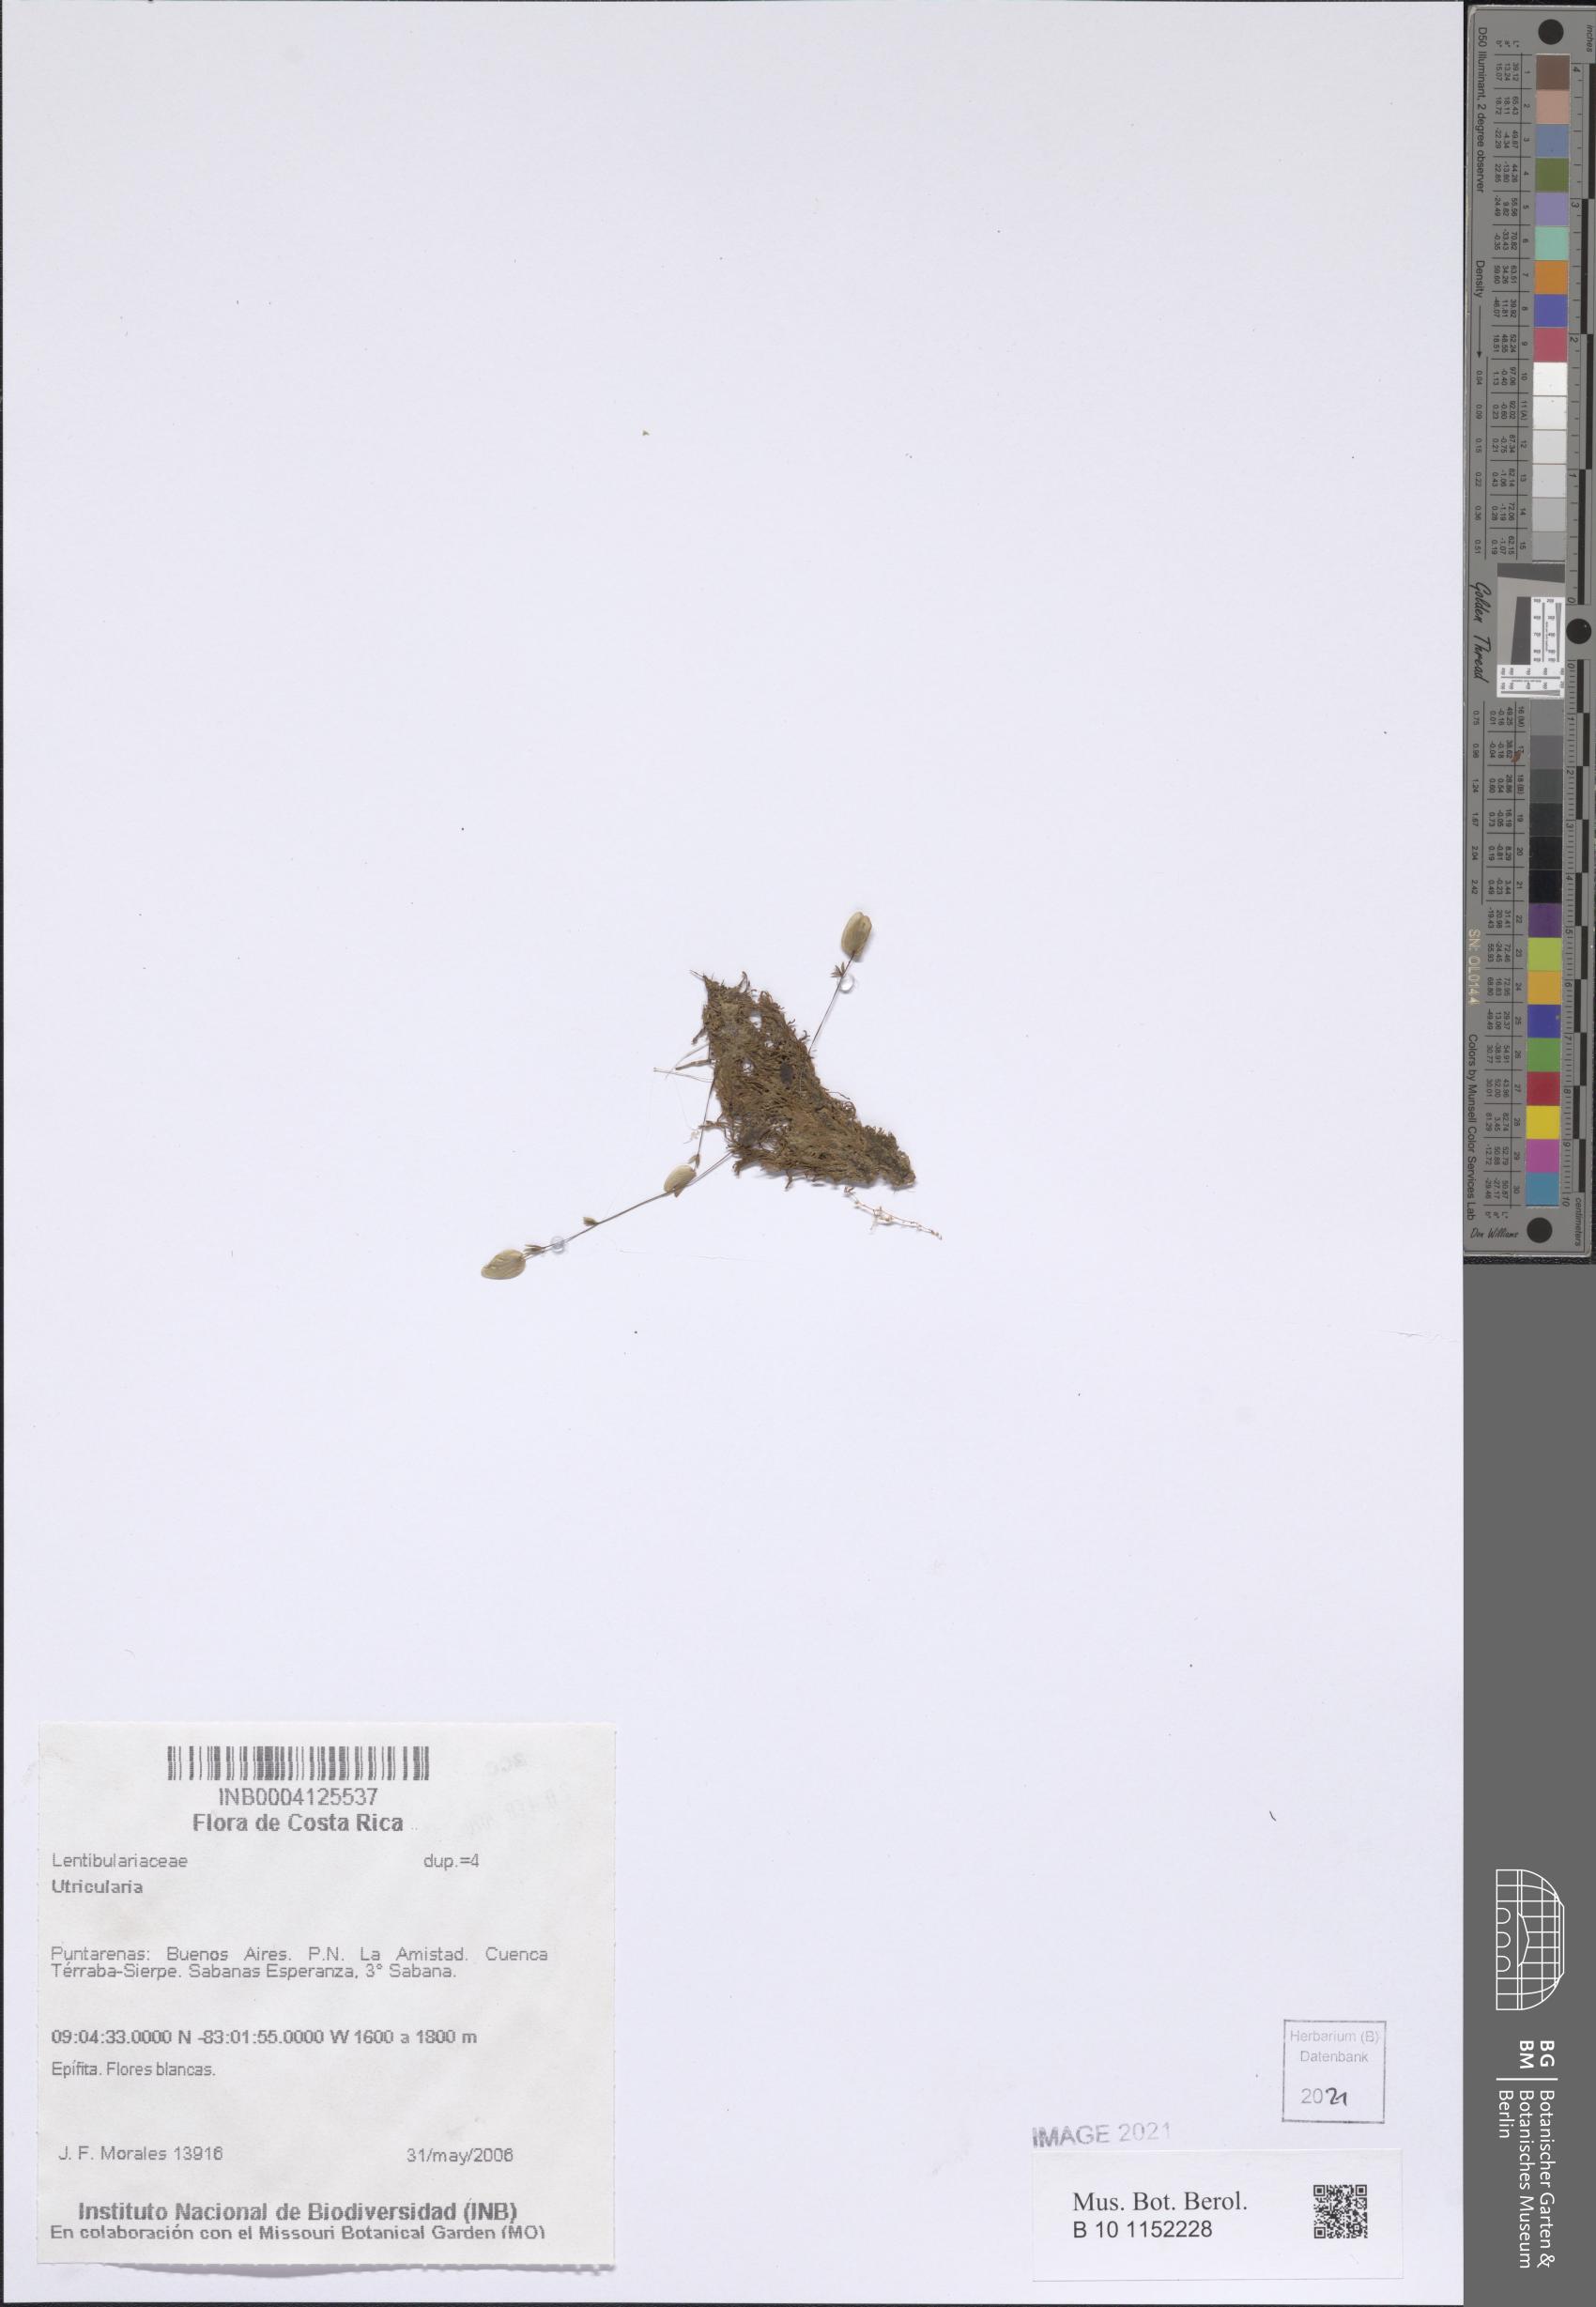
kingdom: Plantae
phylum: Tracheophyta
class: Magnoliopsida
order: Lamiales
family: Lentibulariaceae
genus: Utricularia
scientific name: Utricularia
